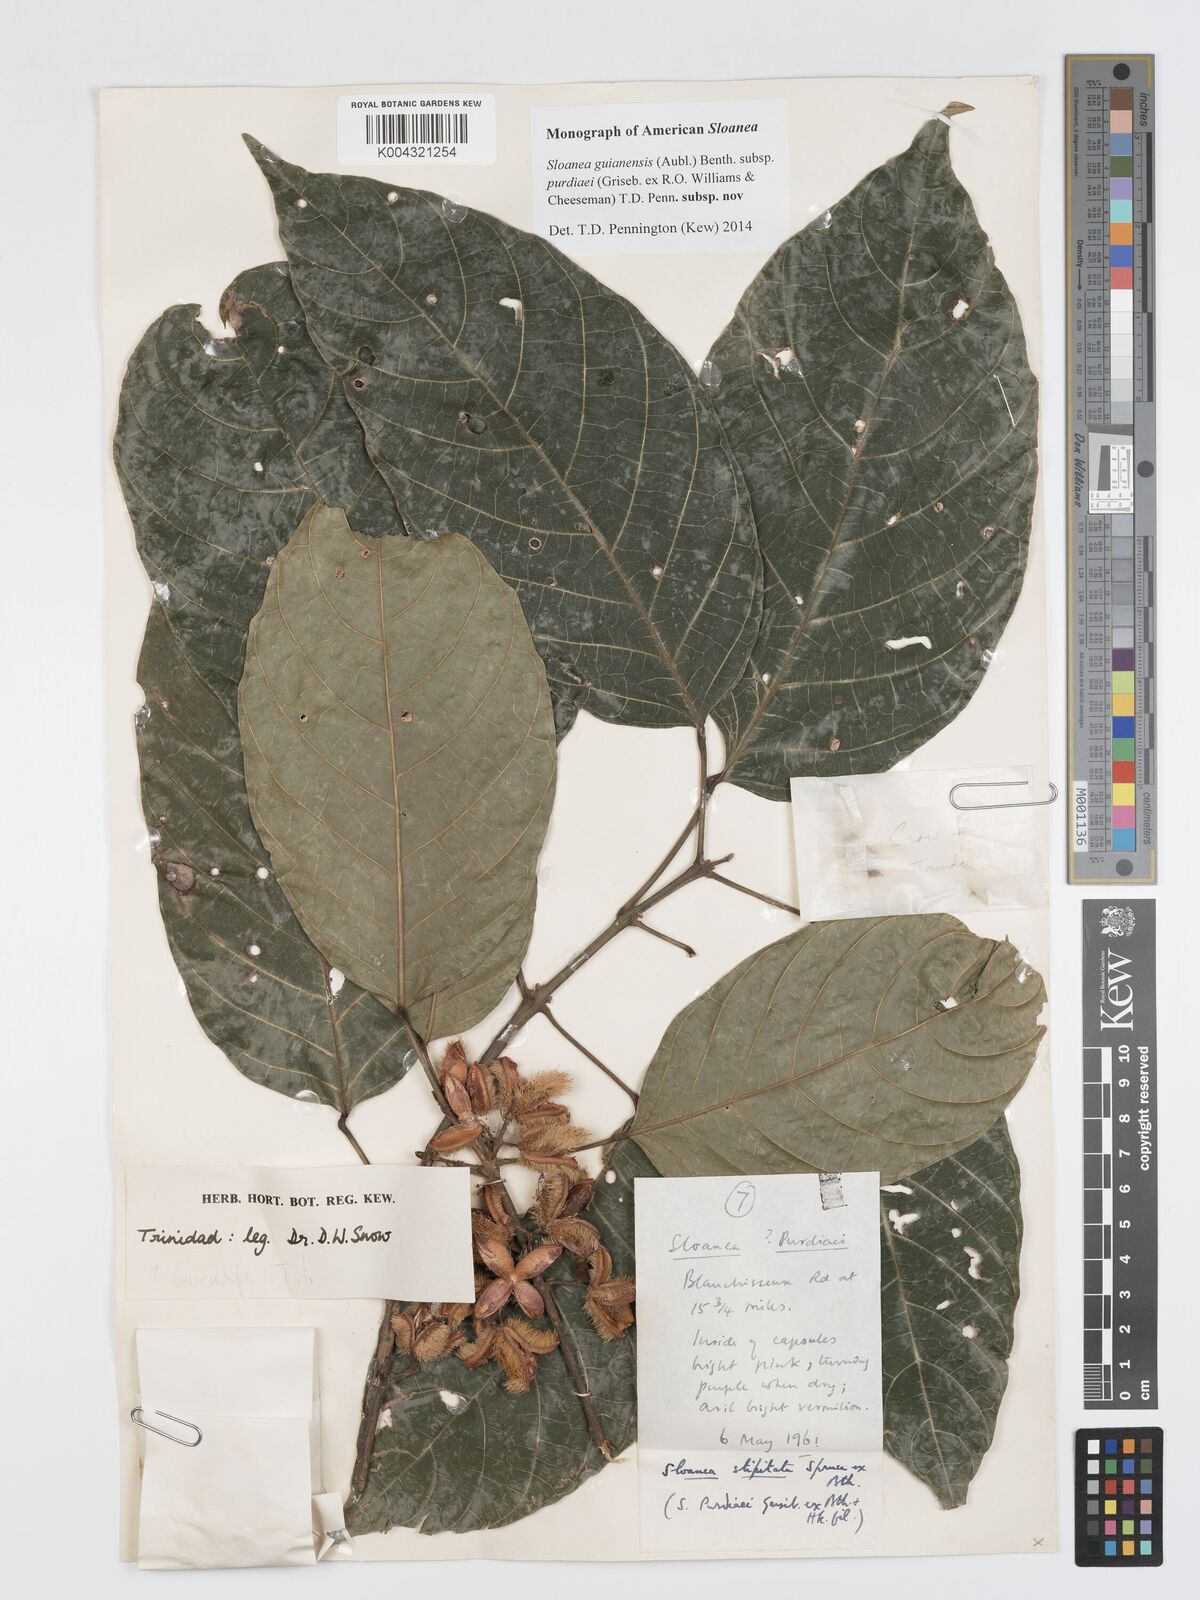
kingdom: Plantae
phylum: Tracheophyta
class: Magnoliopsida
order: Oxalidales
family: Elaeocarpaceae
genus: Sloanea
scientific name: Sloanea guianensis
